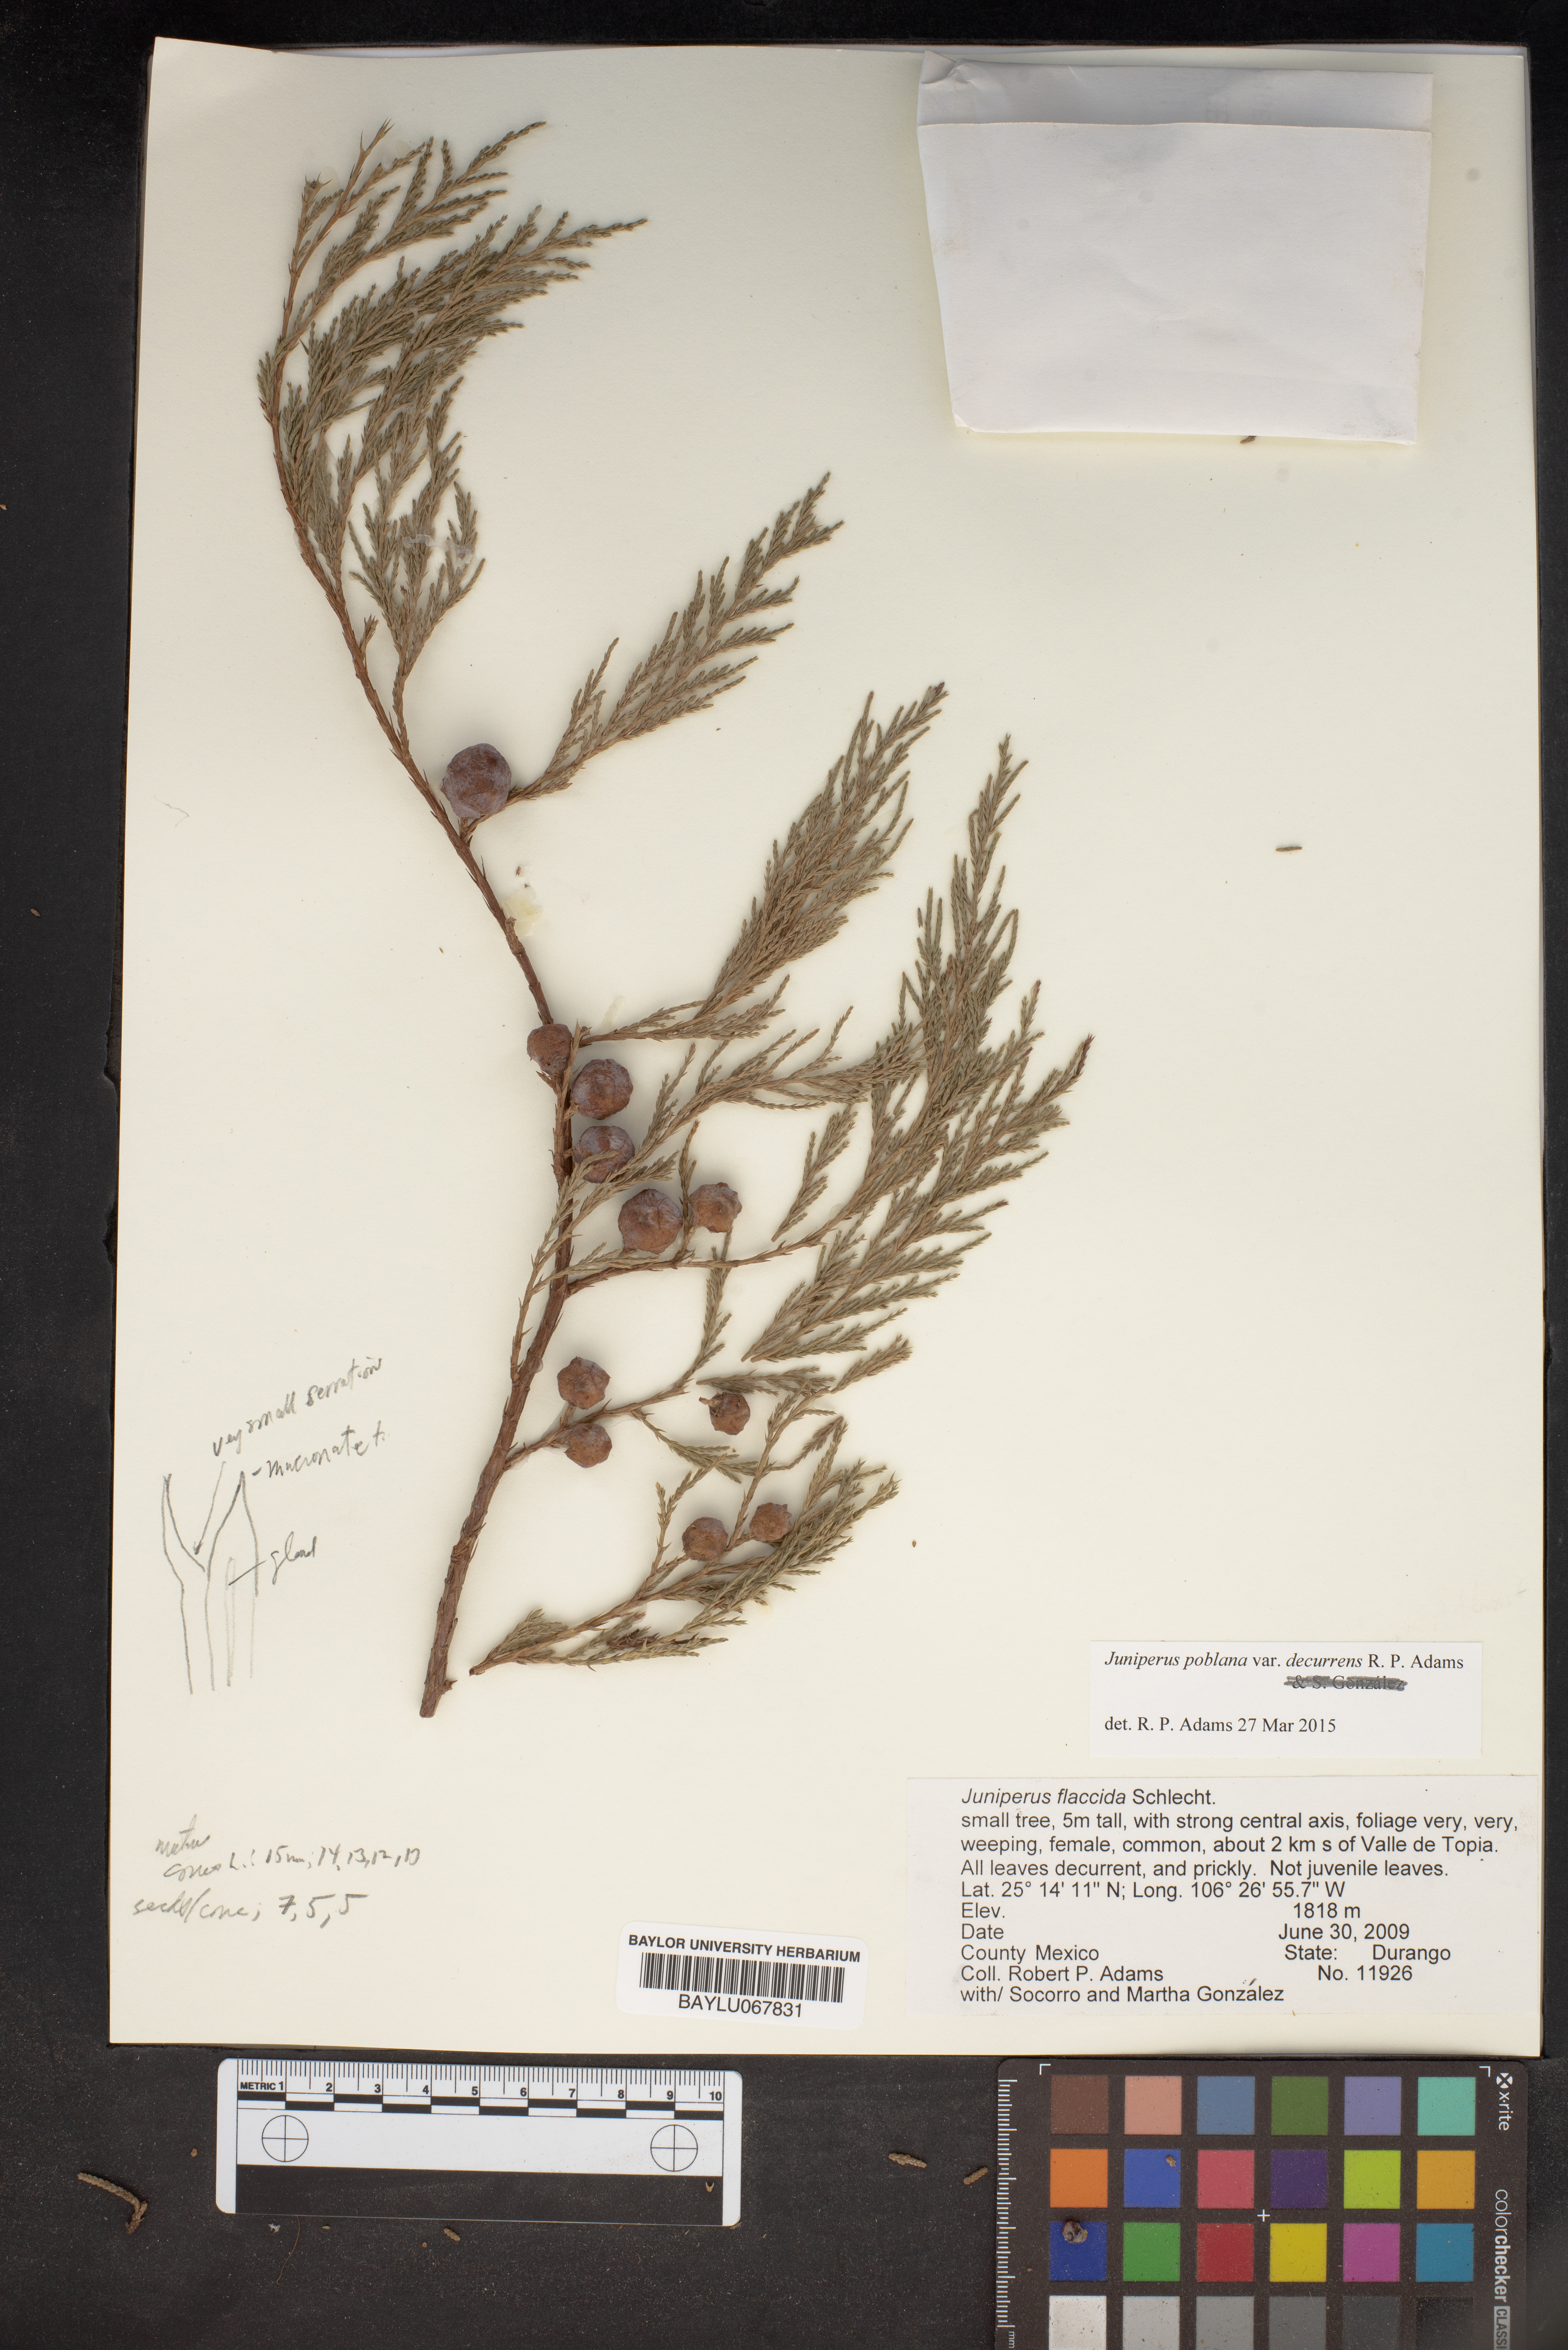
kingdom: Plantae
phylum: Tracheophyta
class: Pinopsida
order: Pinales
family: Cupressaceae
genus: Juniperus
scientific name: Juniperus flaccida
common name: Drooping juniper
